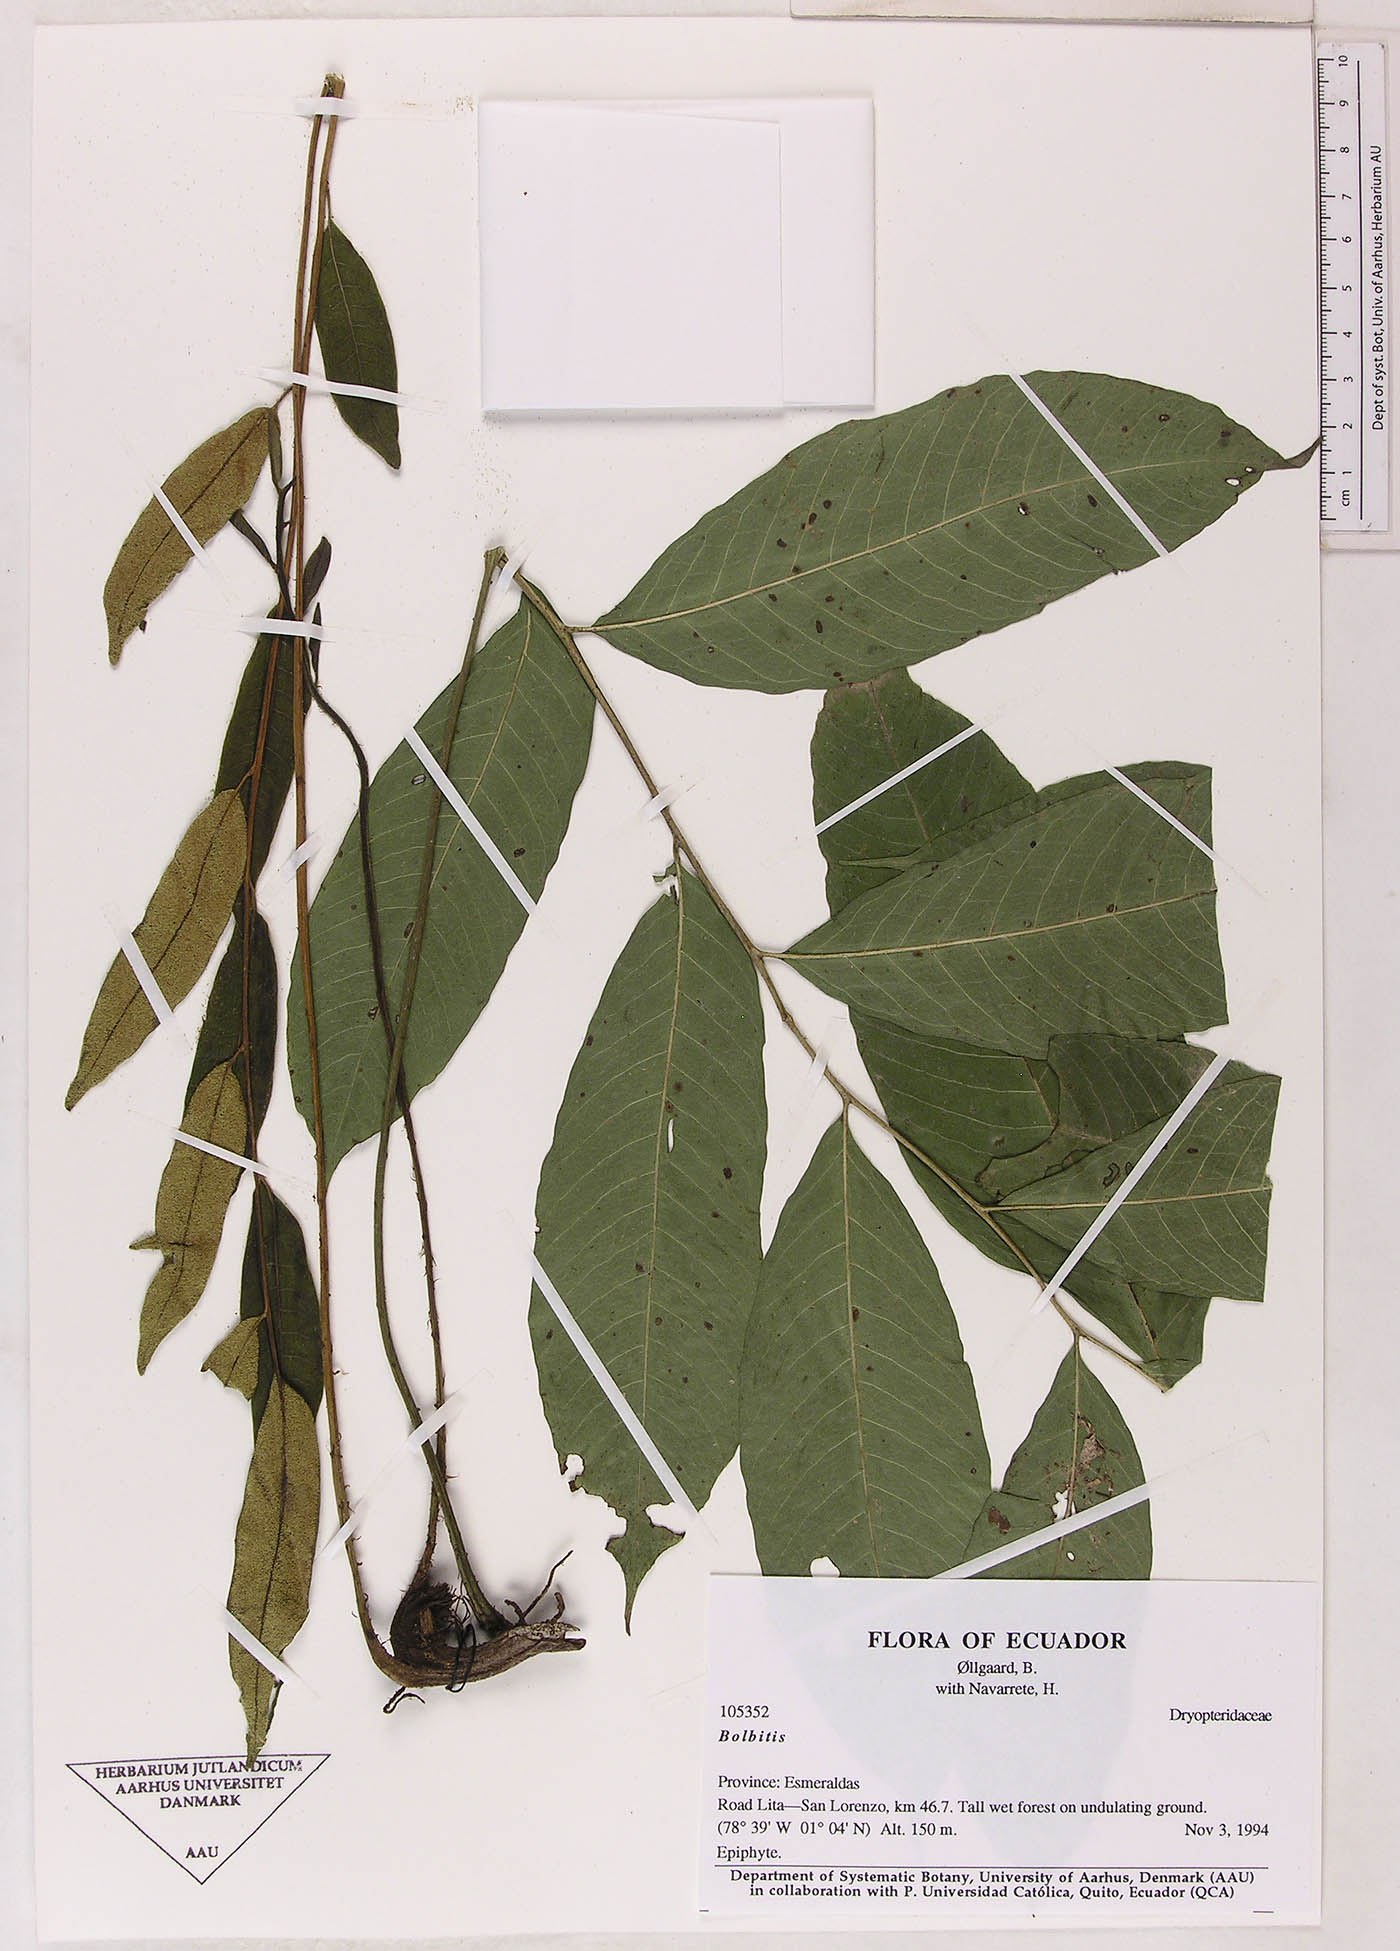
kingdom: Plantae
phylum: Tracheophyta
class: Polypodiopsida
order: Polypodiales
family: Dryopteridaceae
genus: Bolbitis
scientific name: Bolbitis
